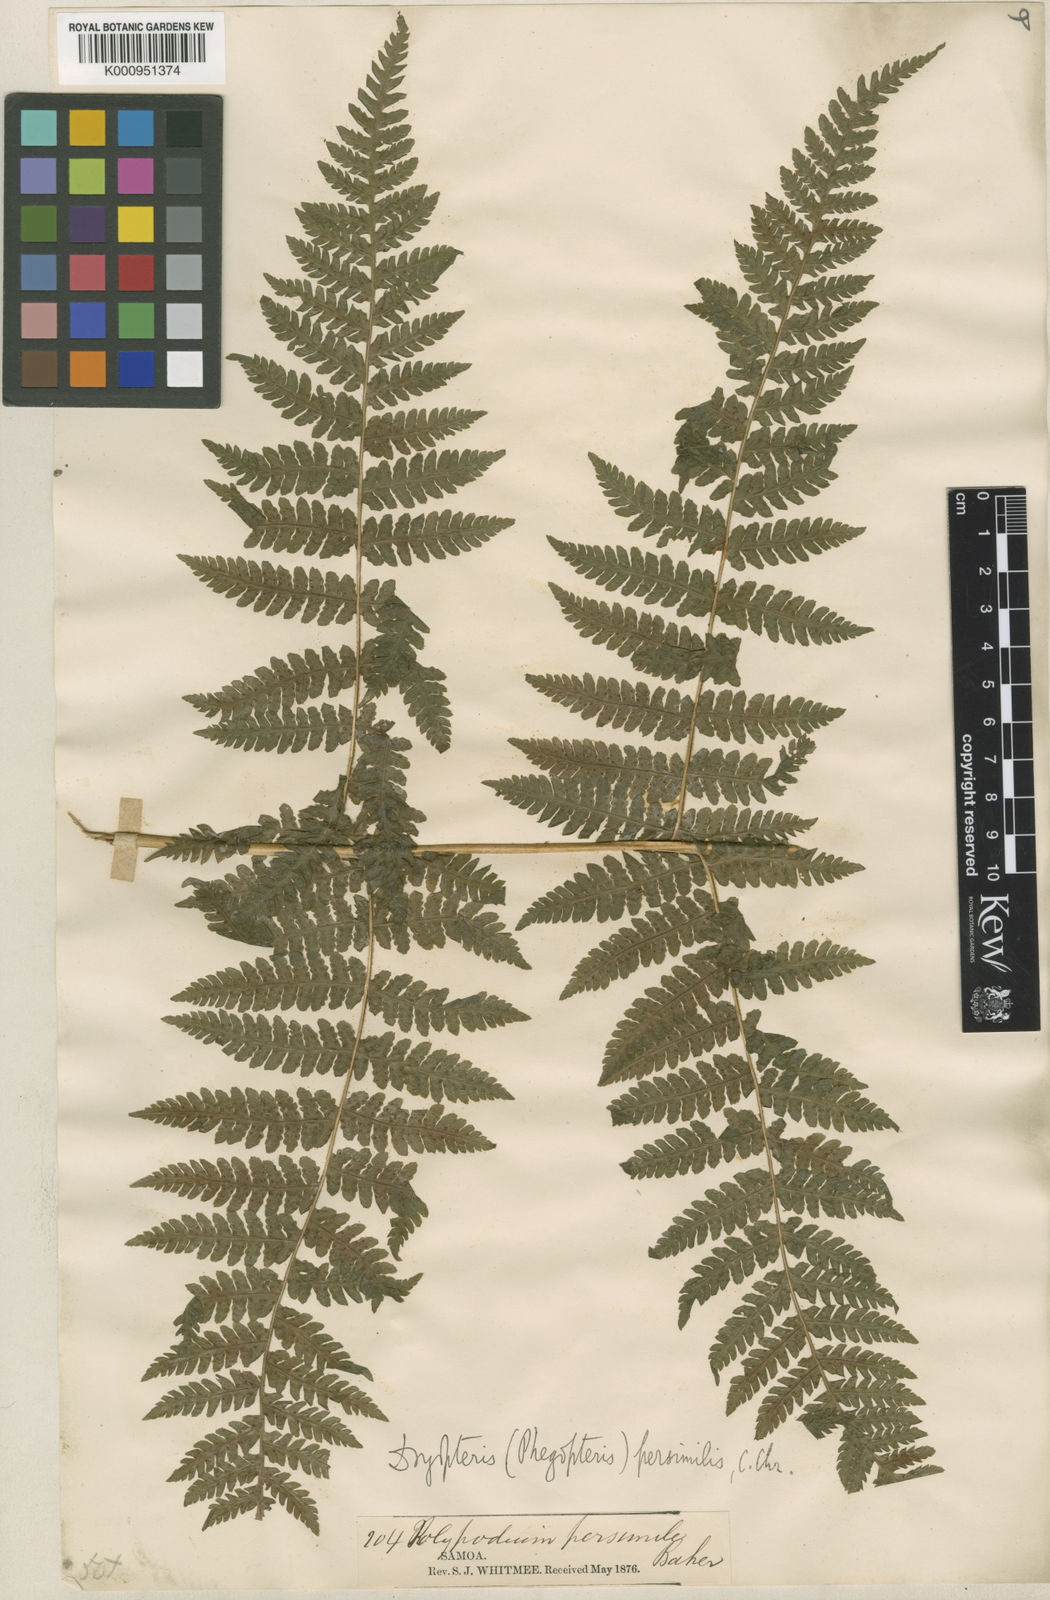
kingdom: Plantae
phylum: Tracheophyta
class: Polypodiopsida
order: Polypodiales
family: Thelypteridaceae
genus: Pseudophegopteris
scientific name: Pseudophegopteris persimilis
